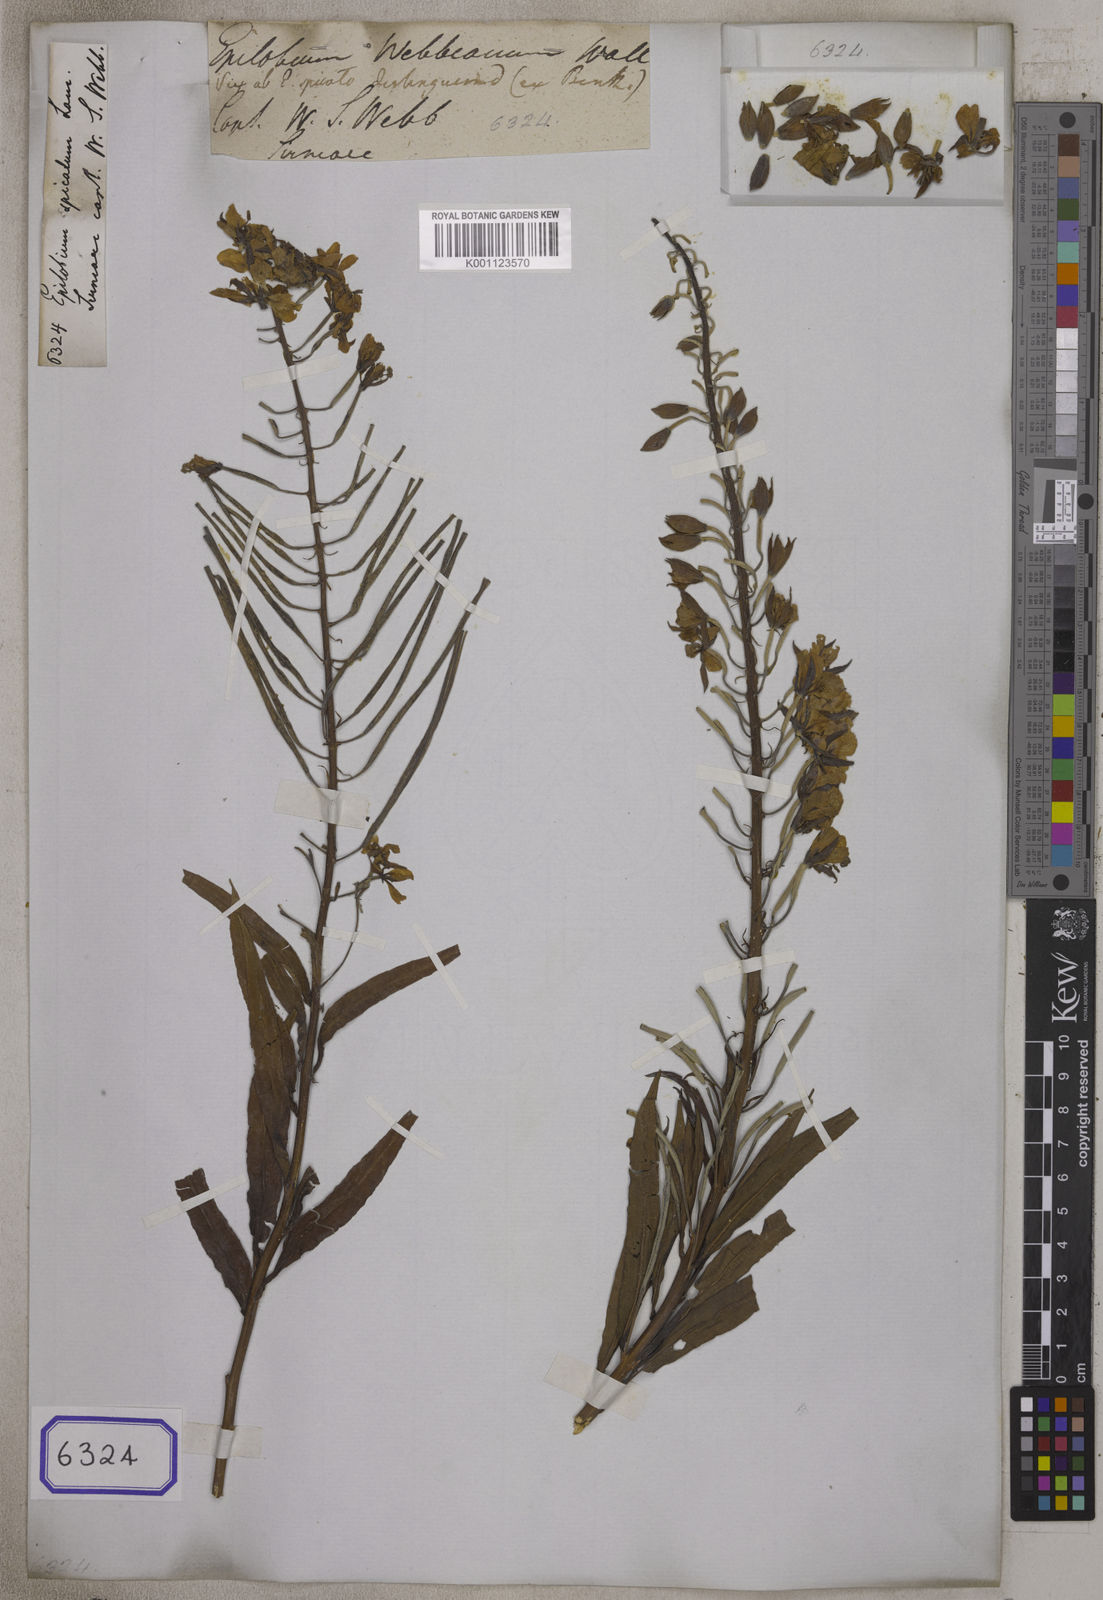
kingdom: Plantae
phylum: Tracheophyta
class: Magnoliopsida
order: Myrtales
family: Onagraceae
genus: Chamaenerion
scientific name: Chamaenerion angustifolium
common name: Fireweed
